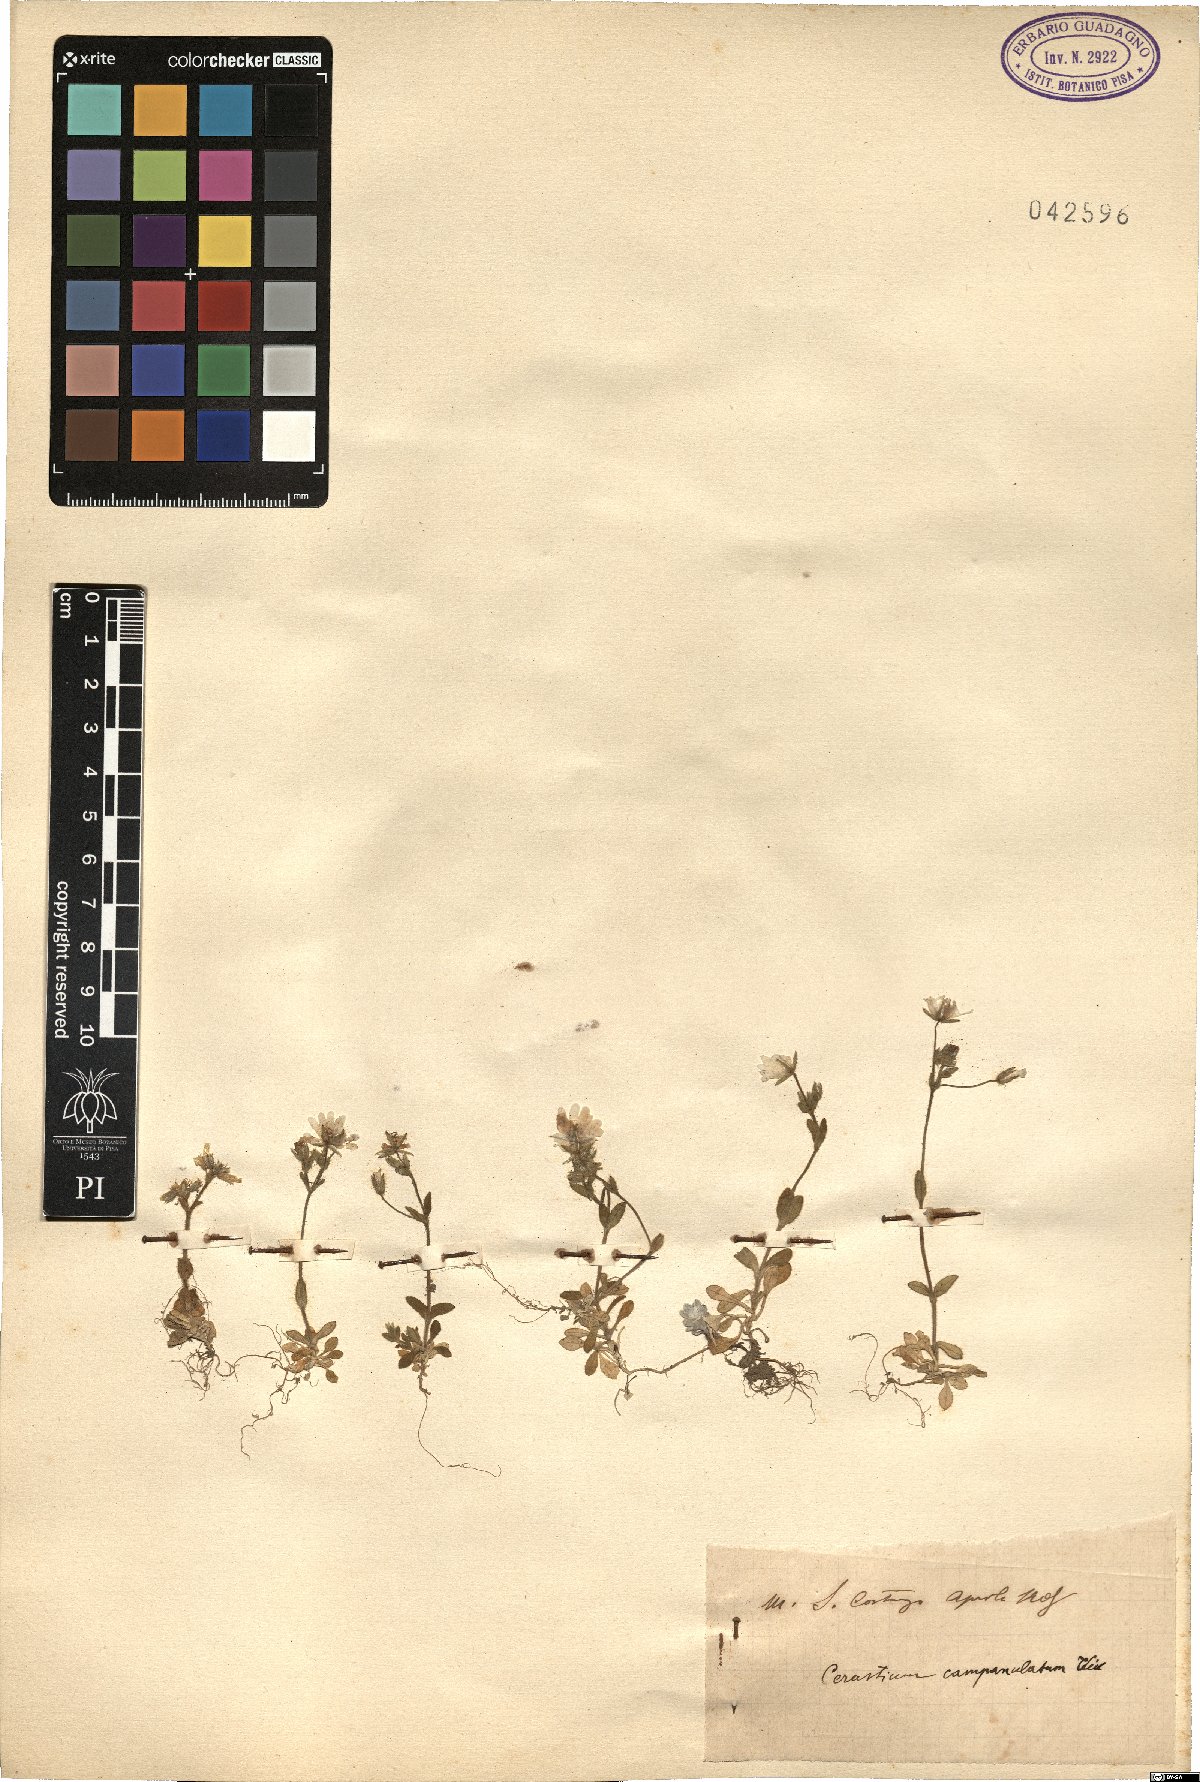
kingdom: Plantae
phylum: Tracheophyta
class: Magnoliopsida
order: Caryophyllales
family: Caryophyllaceae
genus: Cerastium
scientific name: Cerastium ligusticum
